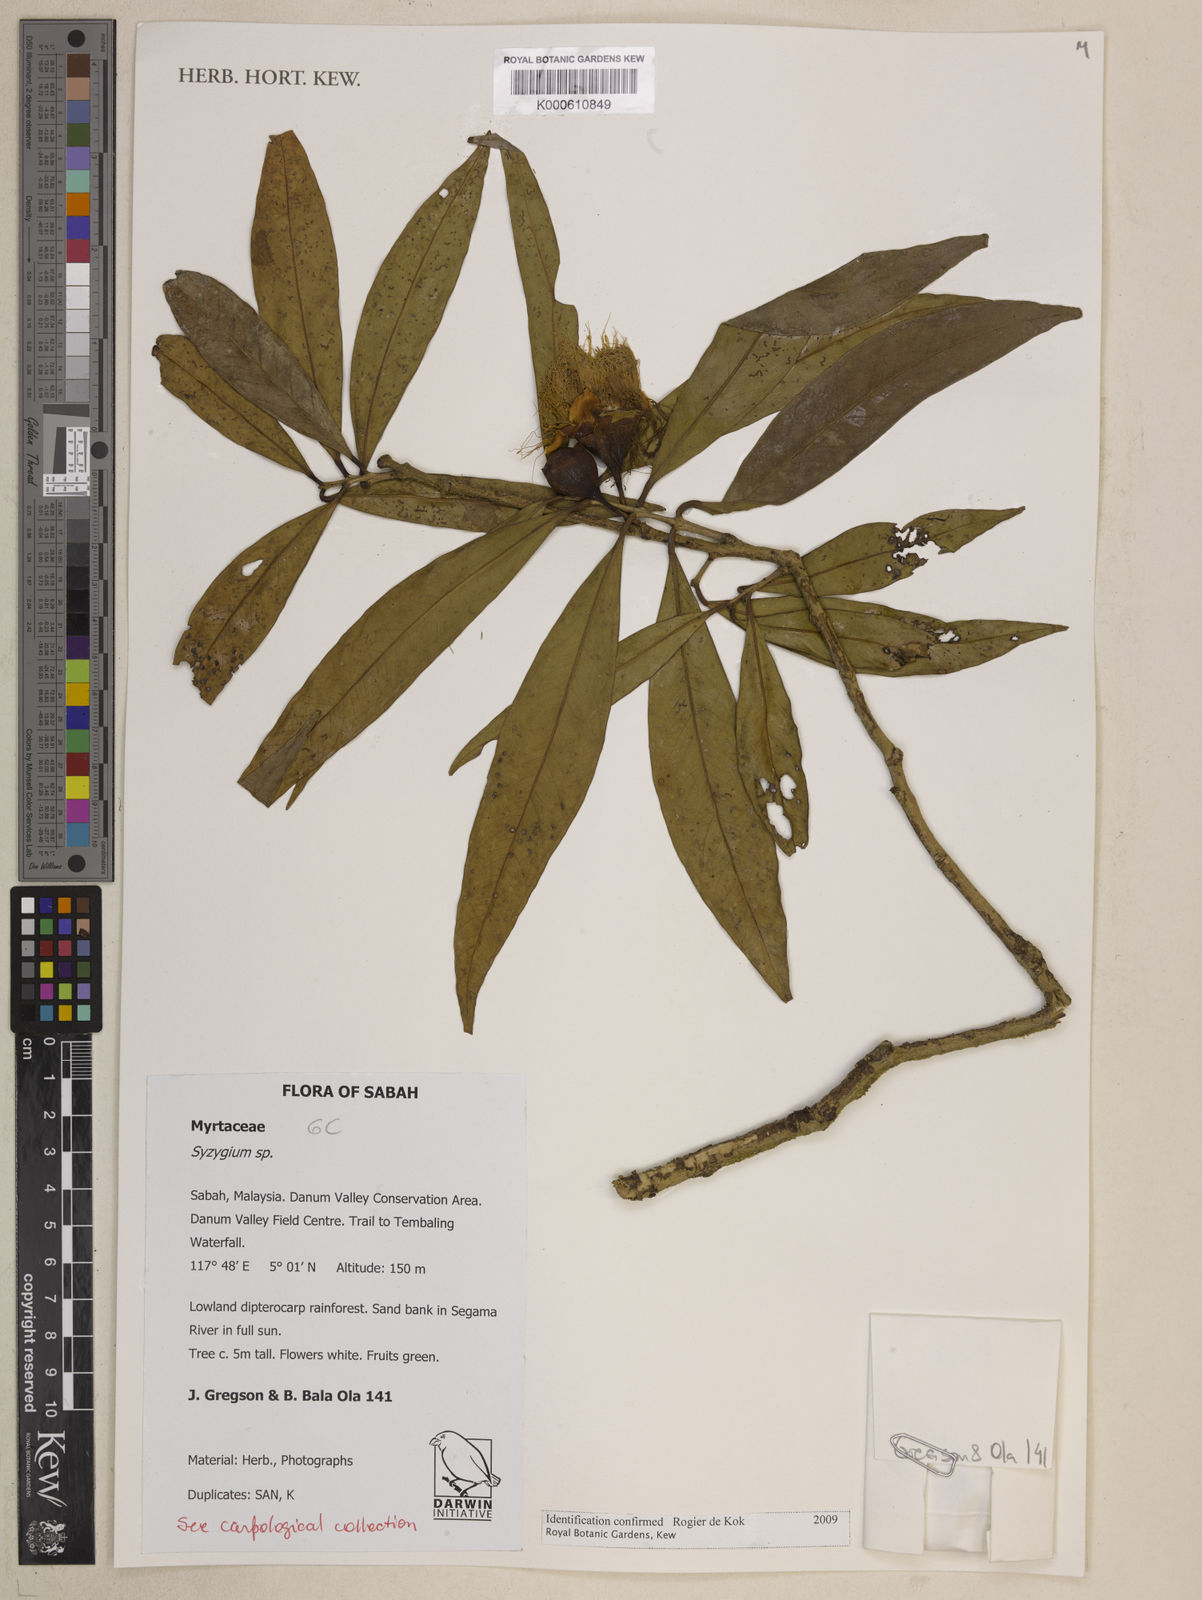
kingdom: Plantae
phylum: Tracheophyta
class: Magnoliopsida
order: Myrtales
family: Myrtaceae
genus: Syzygium
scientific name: Syzygium
